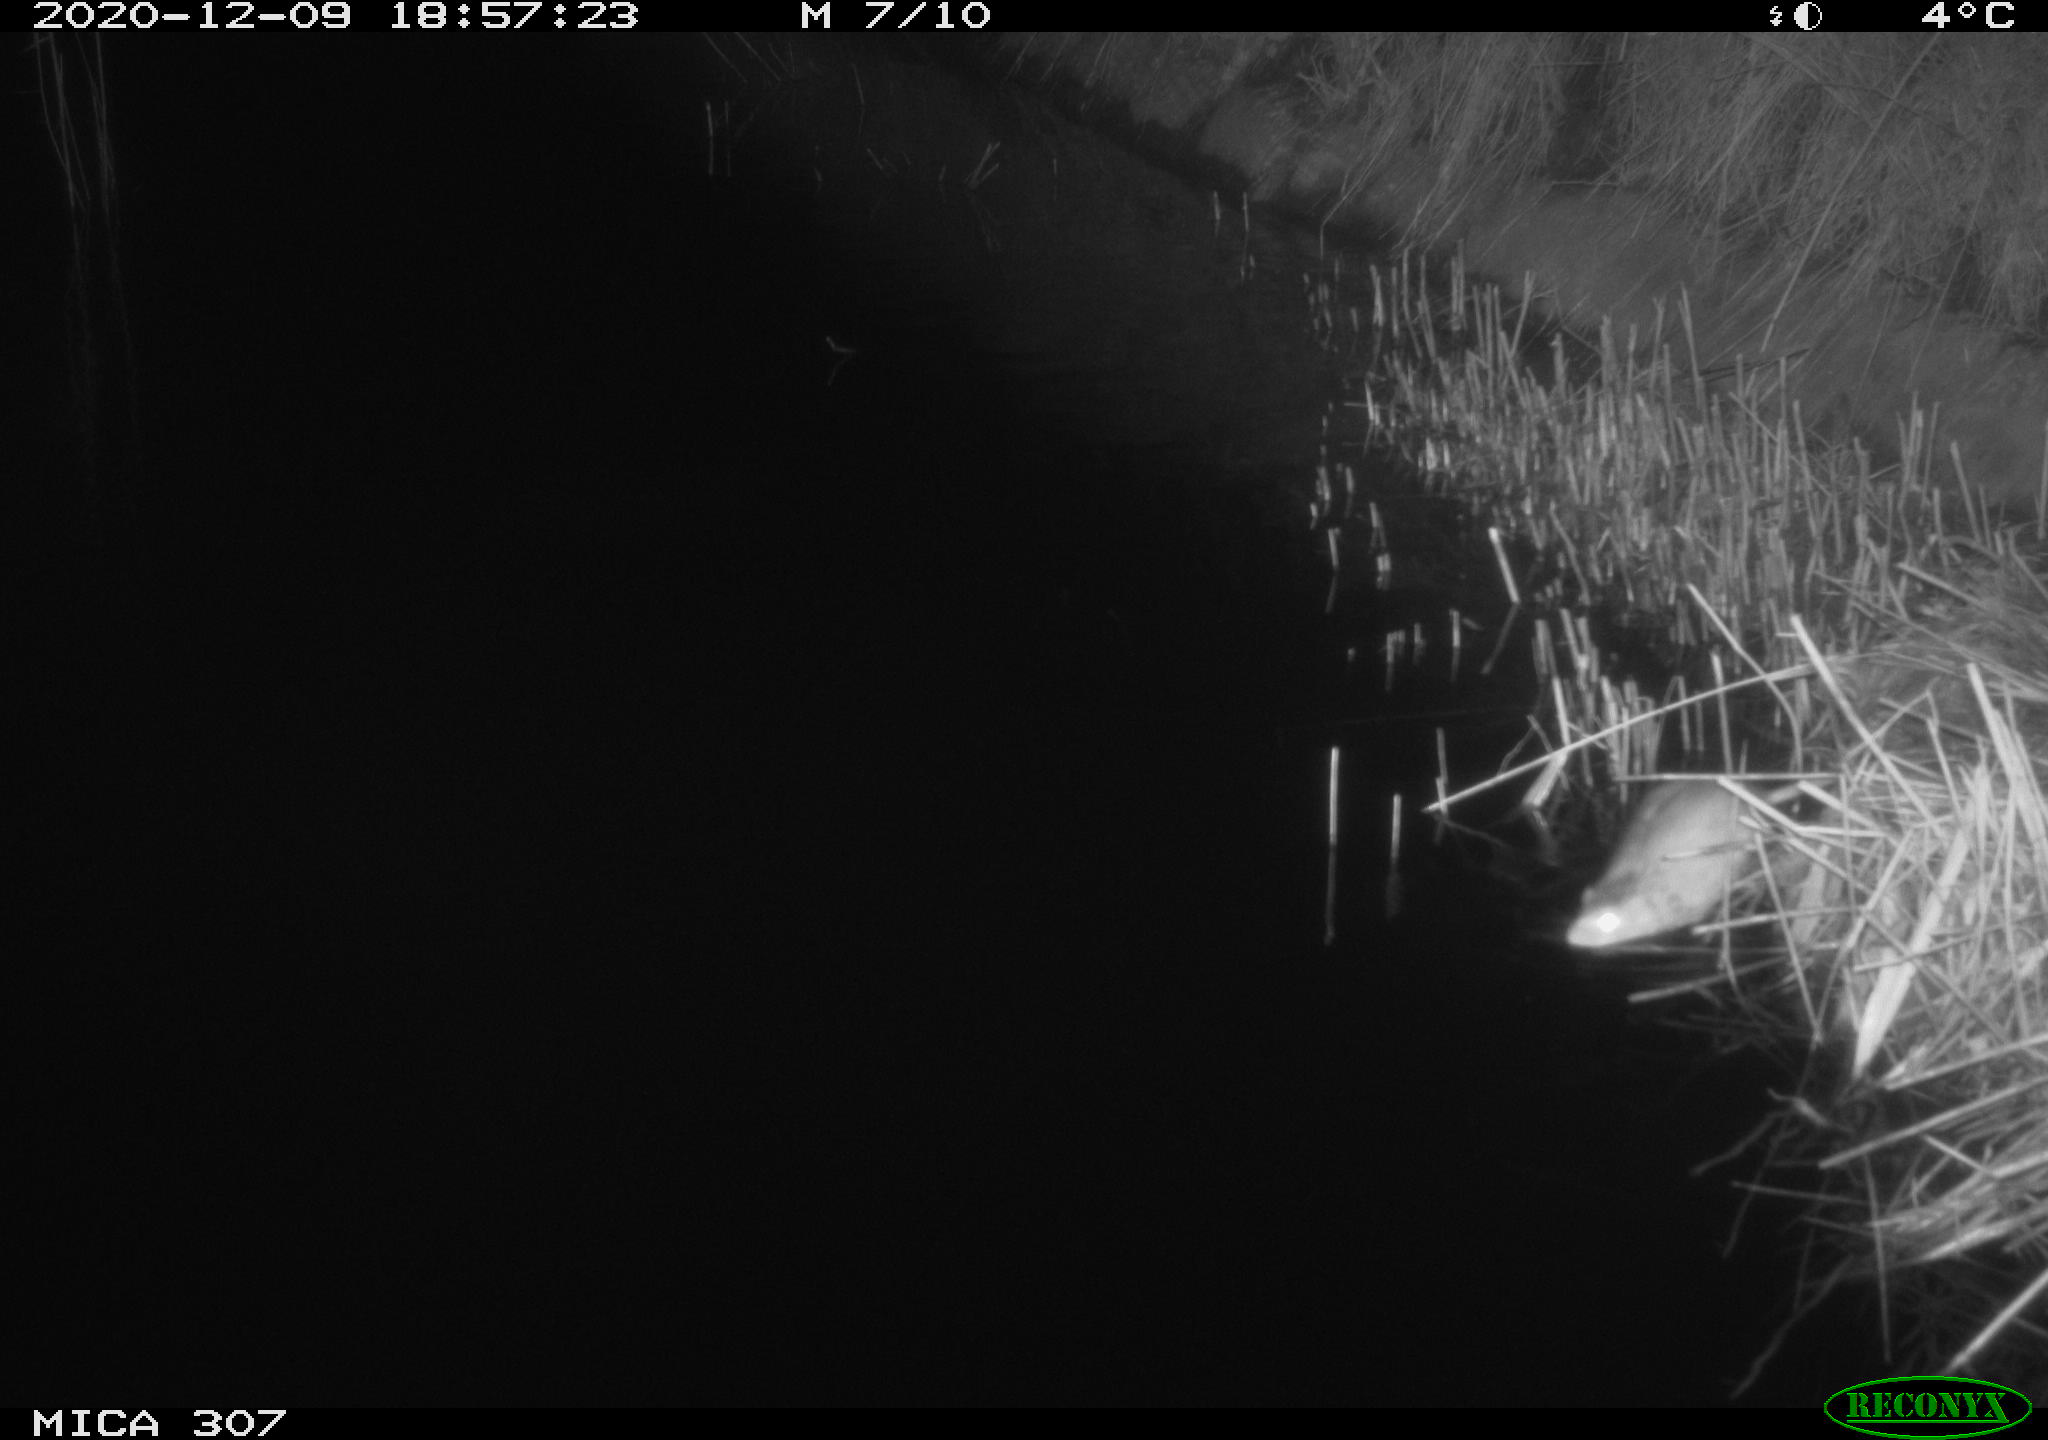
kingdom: Animalia
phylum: Chordata
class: Mammalia
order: Rodentia
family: Muridae
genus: Rattus
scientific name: Rattus norvegicus
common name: Brown rat
